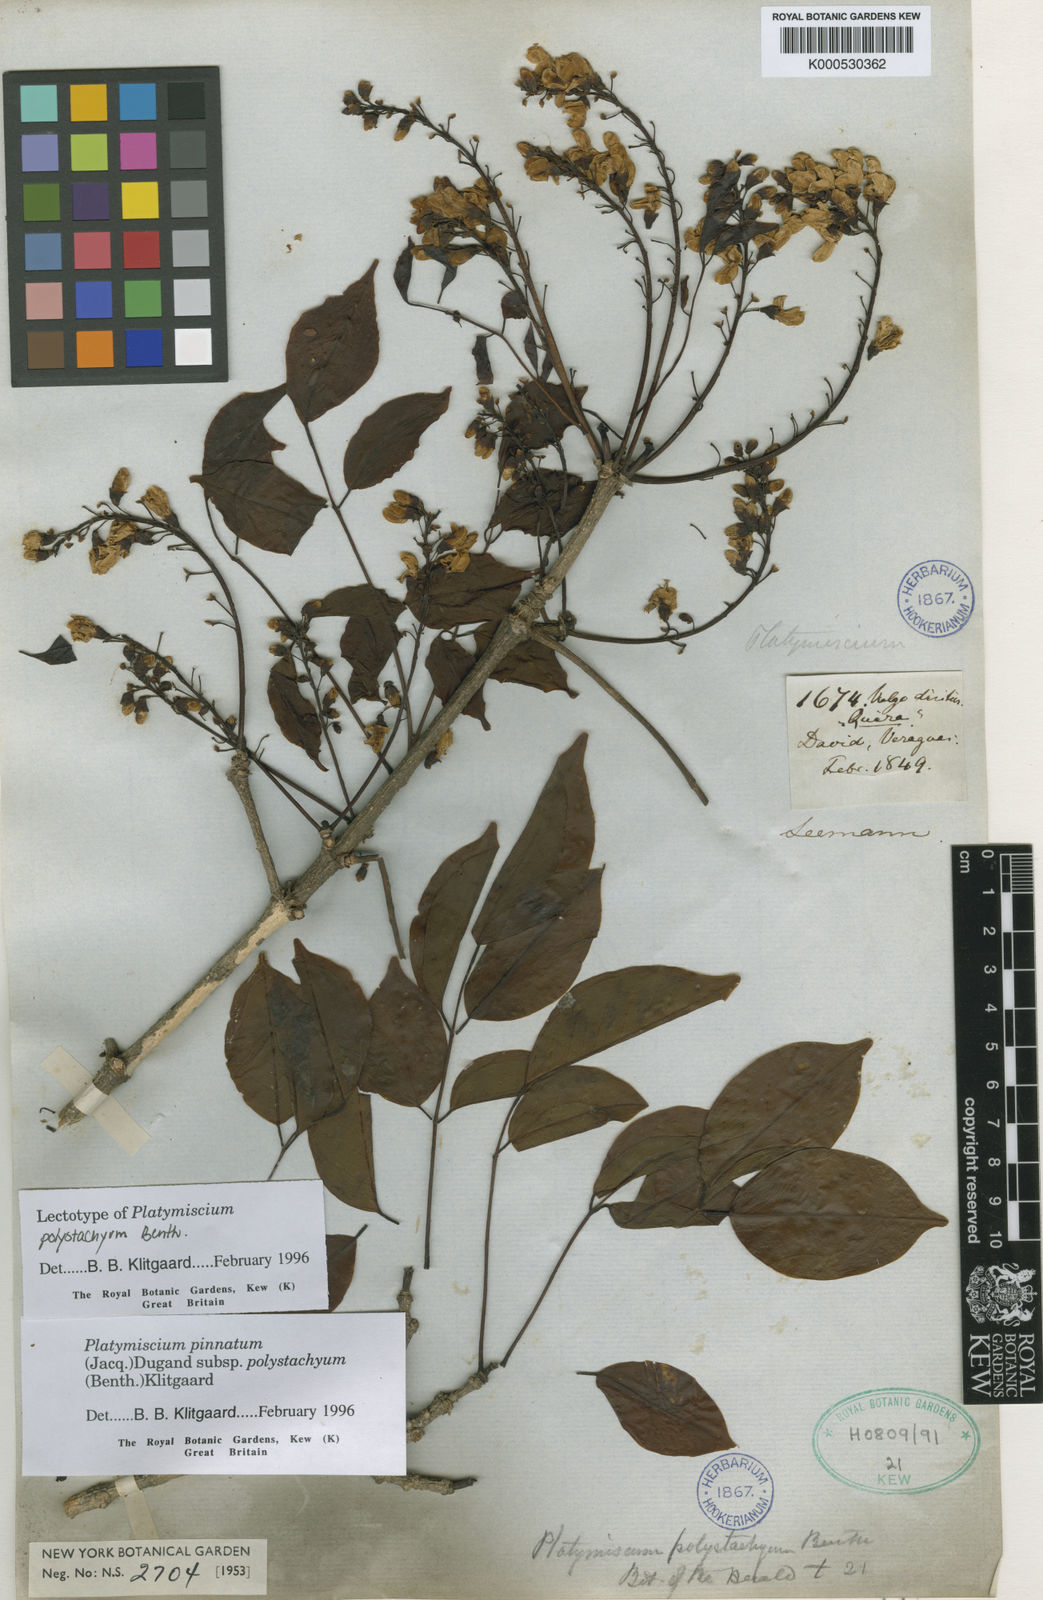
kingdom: Plantae
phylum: Tracheophyta
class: Magnoliopsida
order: Fabales
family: Fabaceae
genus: Platymiscium
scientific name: Platymiscium pinnatum
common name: Panama redwood
